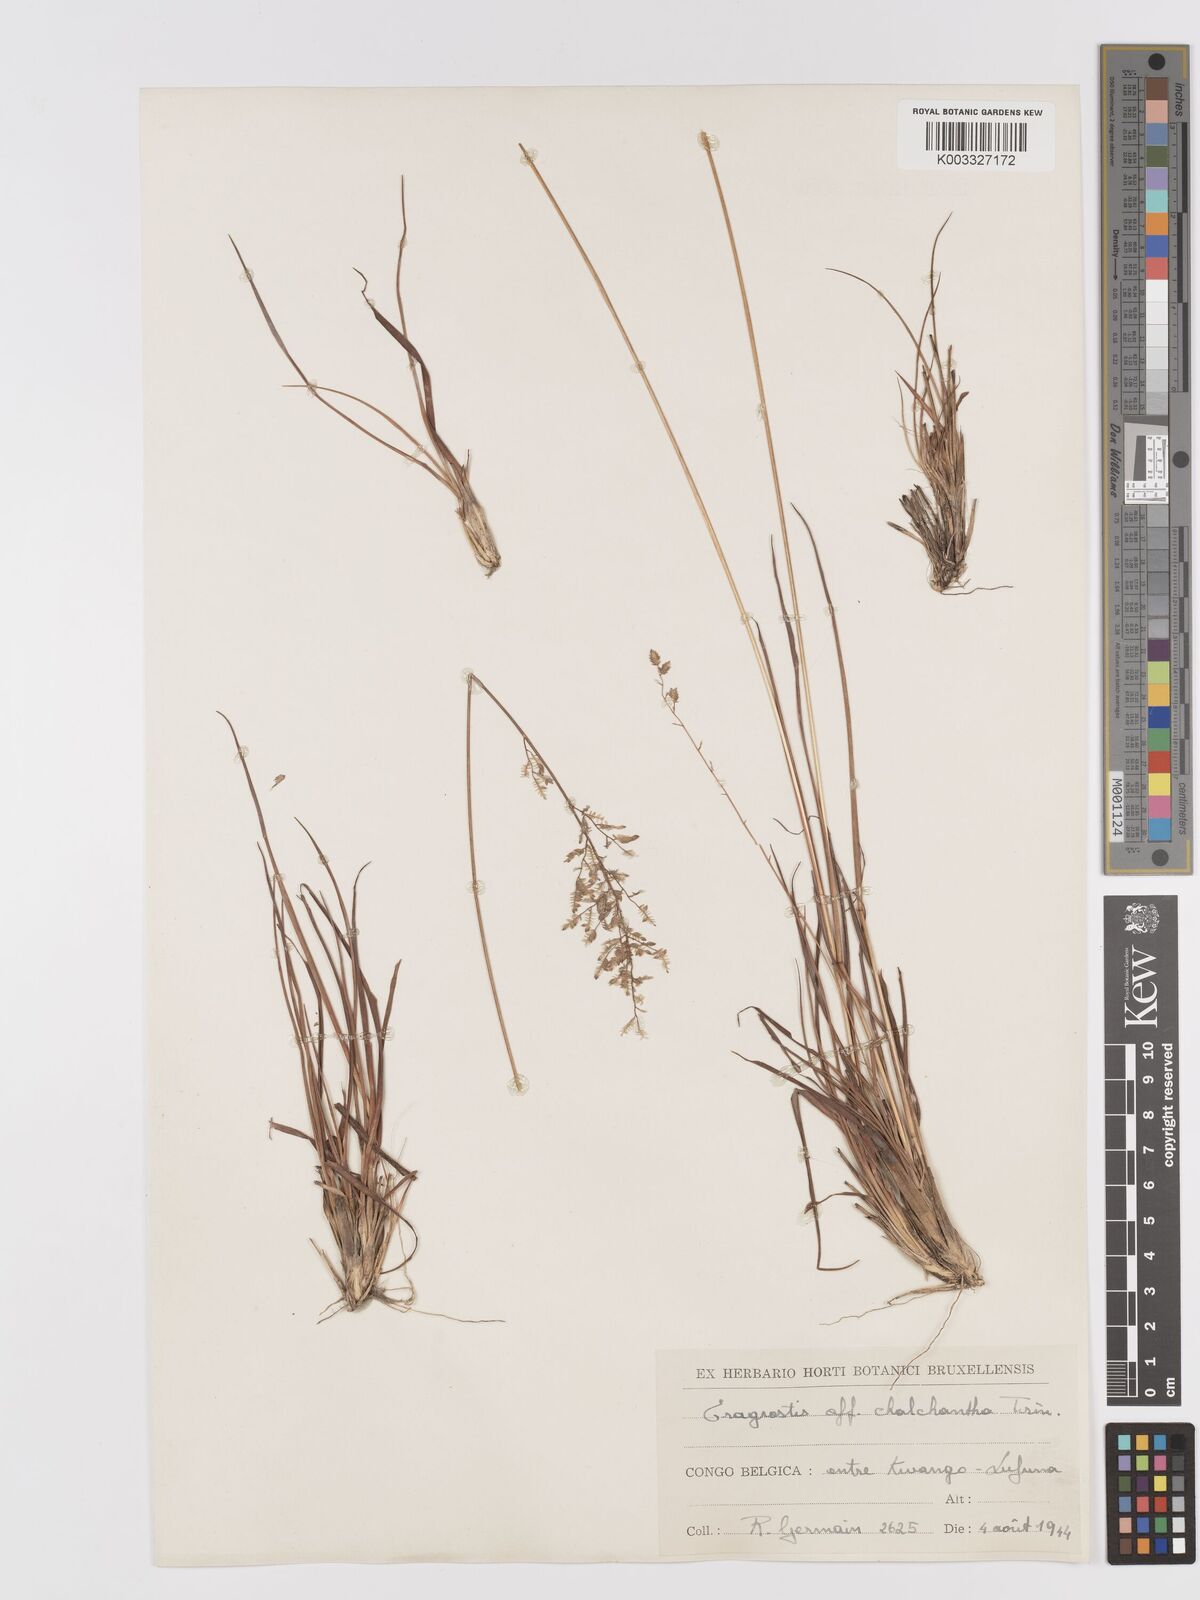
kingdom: Plantae
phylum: Tracheophyta
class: Liliopsida
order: Poales
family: Poaceae
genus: Eragrostis
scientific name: Eragrostis racemosa
